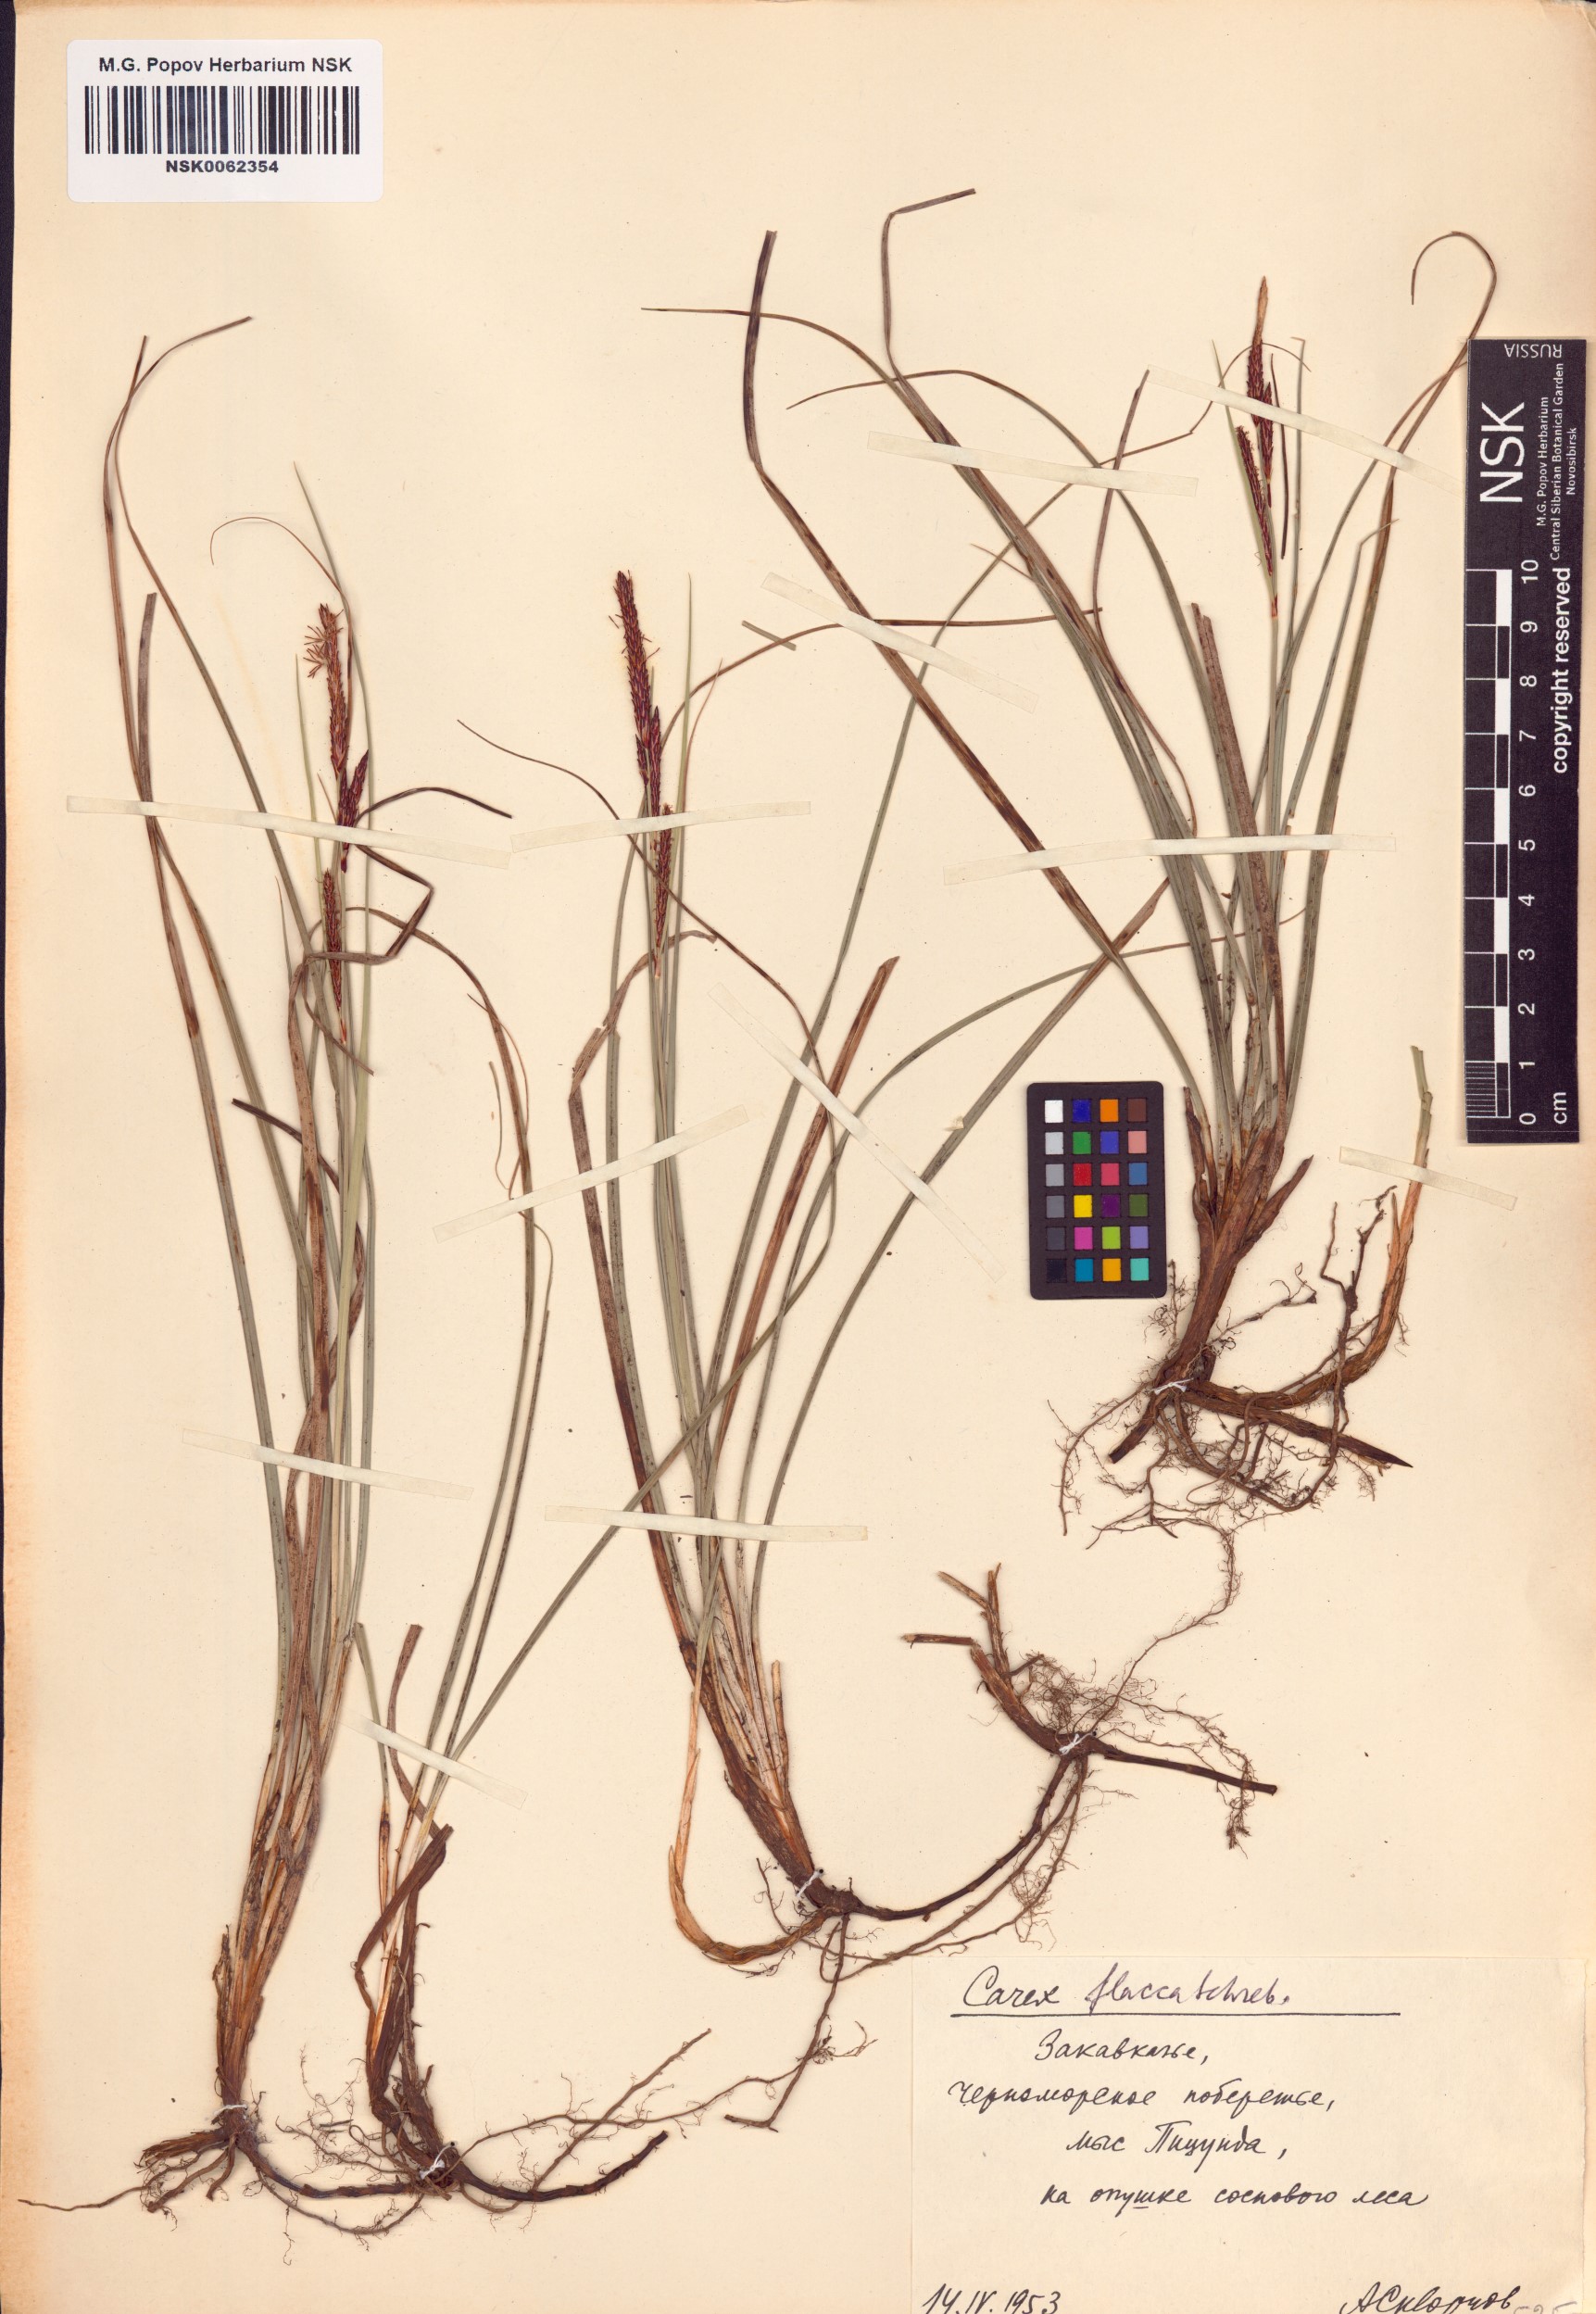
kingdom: Plantae
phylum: Tracheophyta
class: Liliopsida
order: Poales
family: Cyperaceae
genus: Carex
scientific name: Carex flacca
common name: Glaucous sedge
